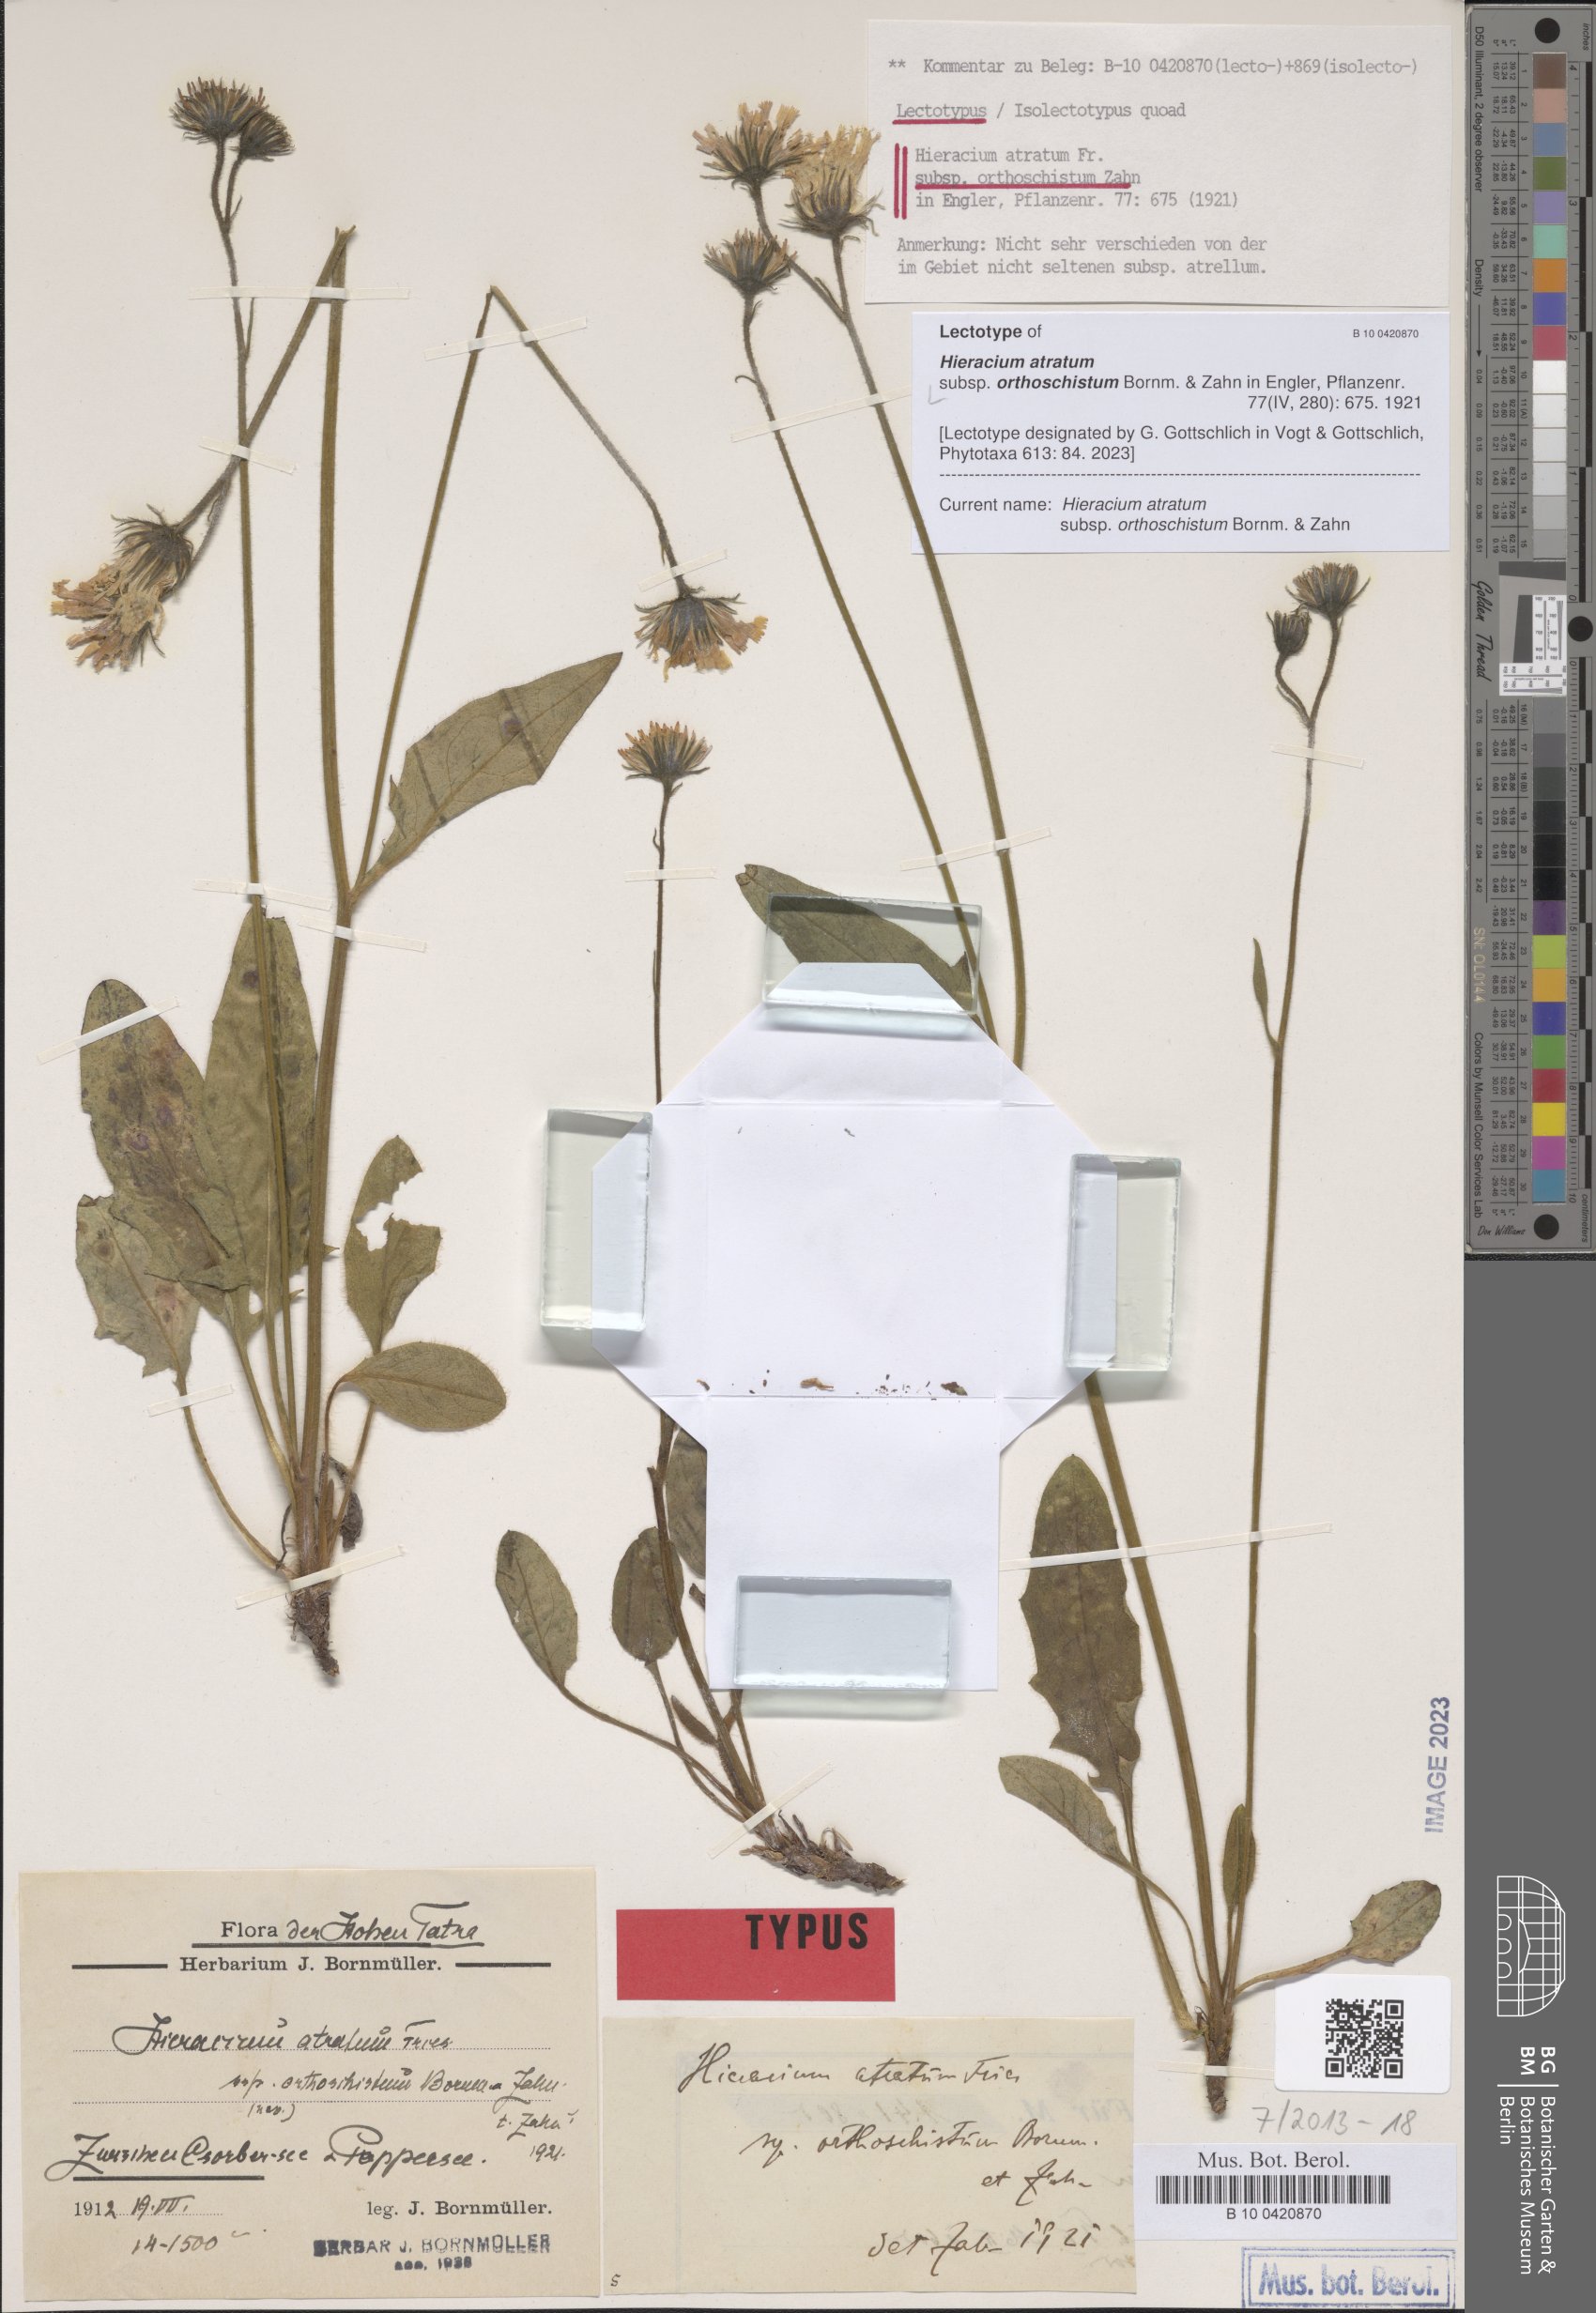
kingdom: Plantae
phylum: Tracheophyta
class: Magnoliopsida
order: Asterales
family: Asteraceae
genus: Hieracium
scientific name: Hieracium atratum
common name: Polar hawkweed
